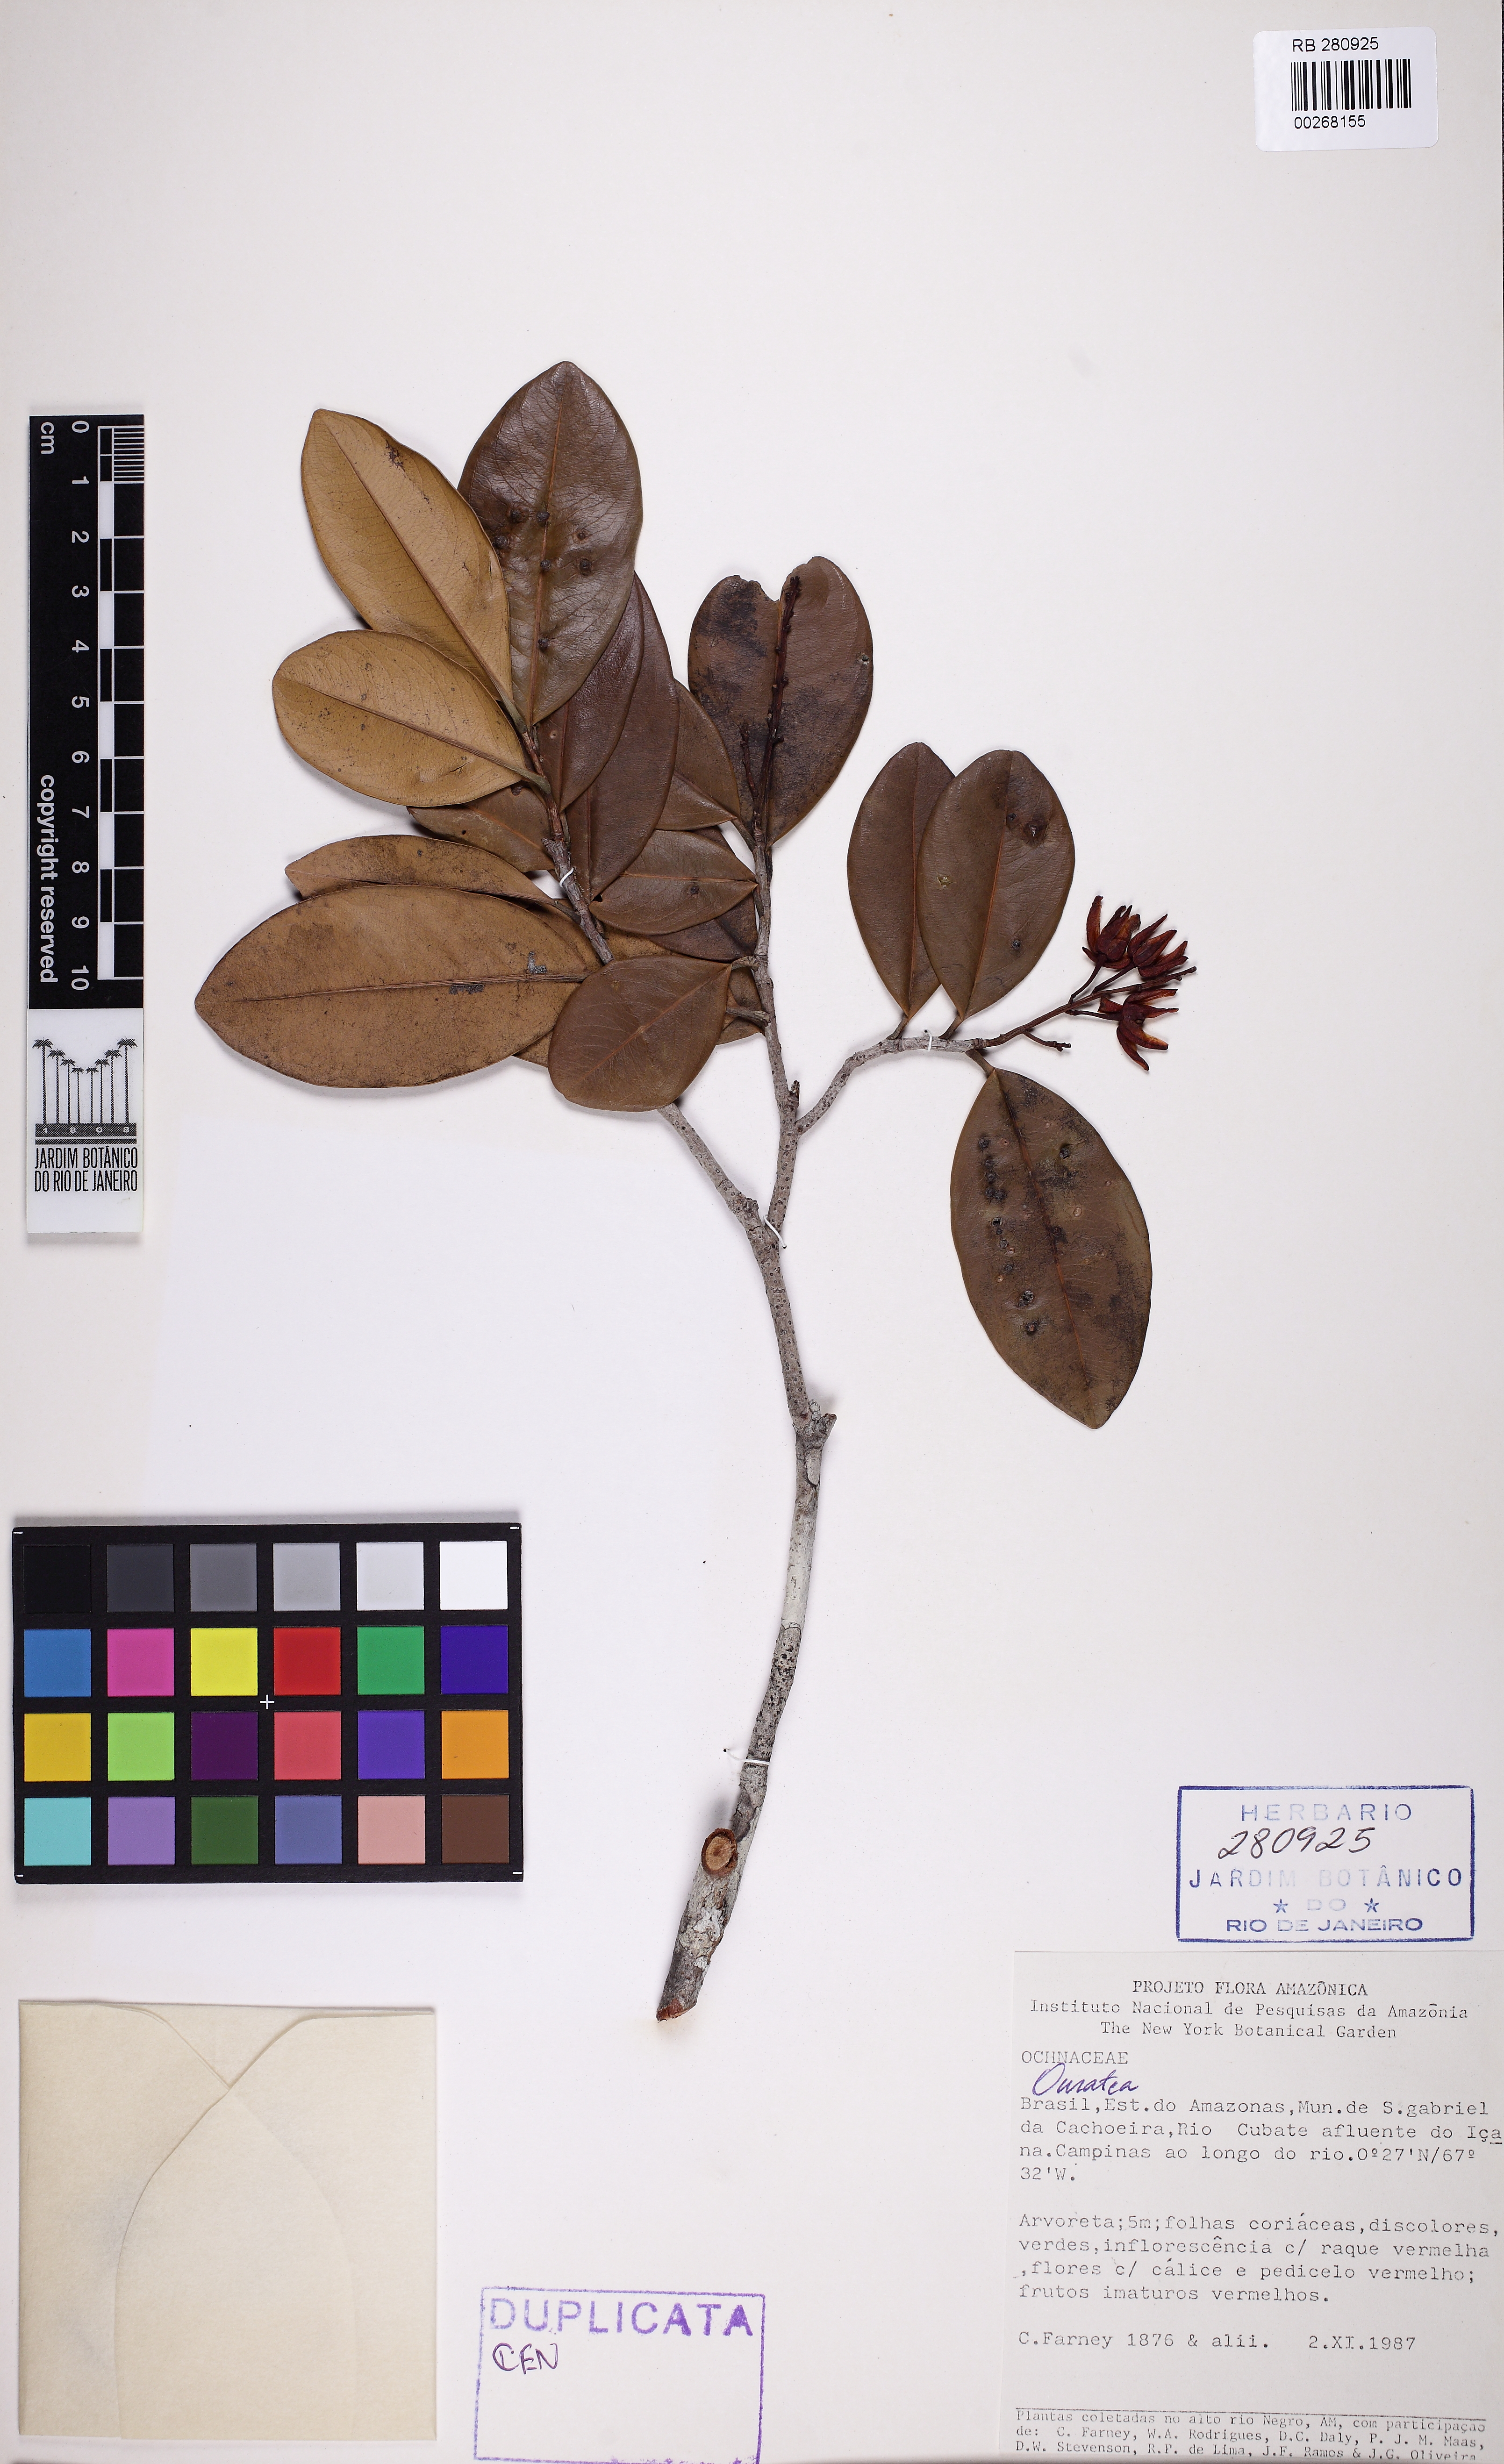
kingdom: Plantae
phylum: Tracheophyta
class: Magnoliopsida
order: Malpighiales
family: Ochnaceae
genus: Ouratea
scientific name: Ouratea
